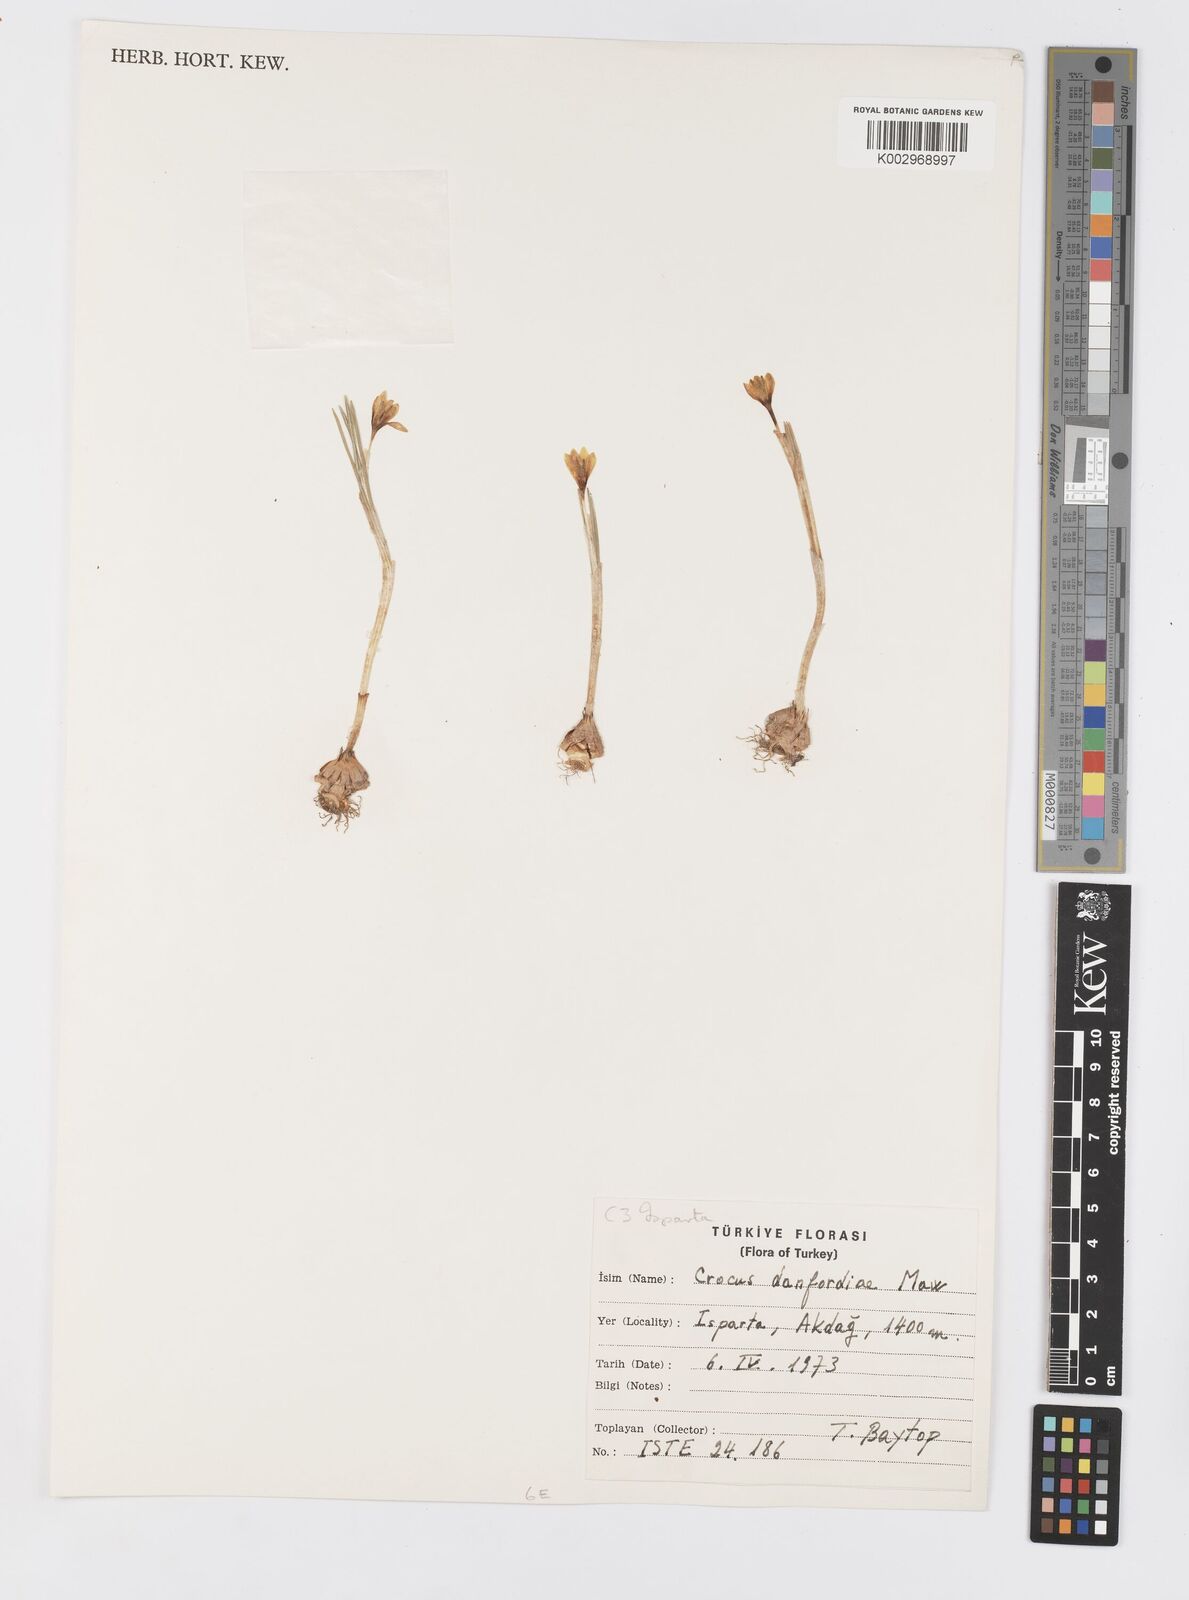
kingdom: Plantae
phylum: Tracheophyta
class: Liliopsida
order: Asparagales
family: Iridaceae
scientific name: Iridaceae
